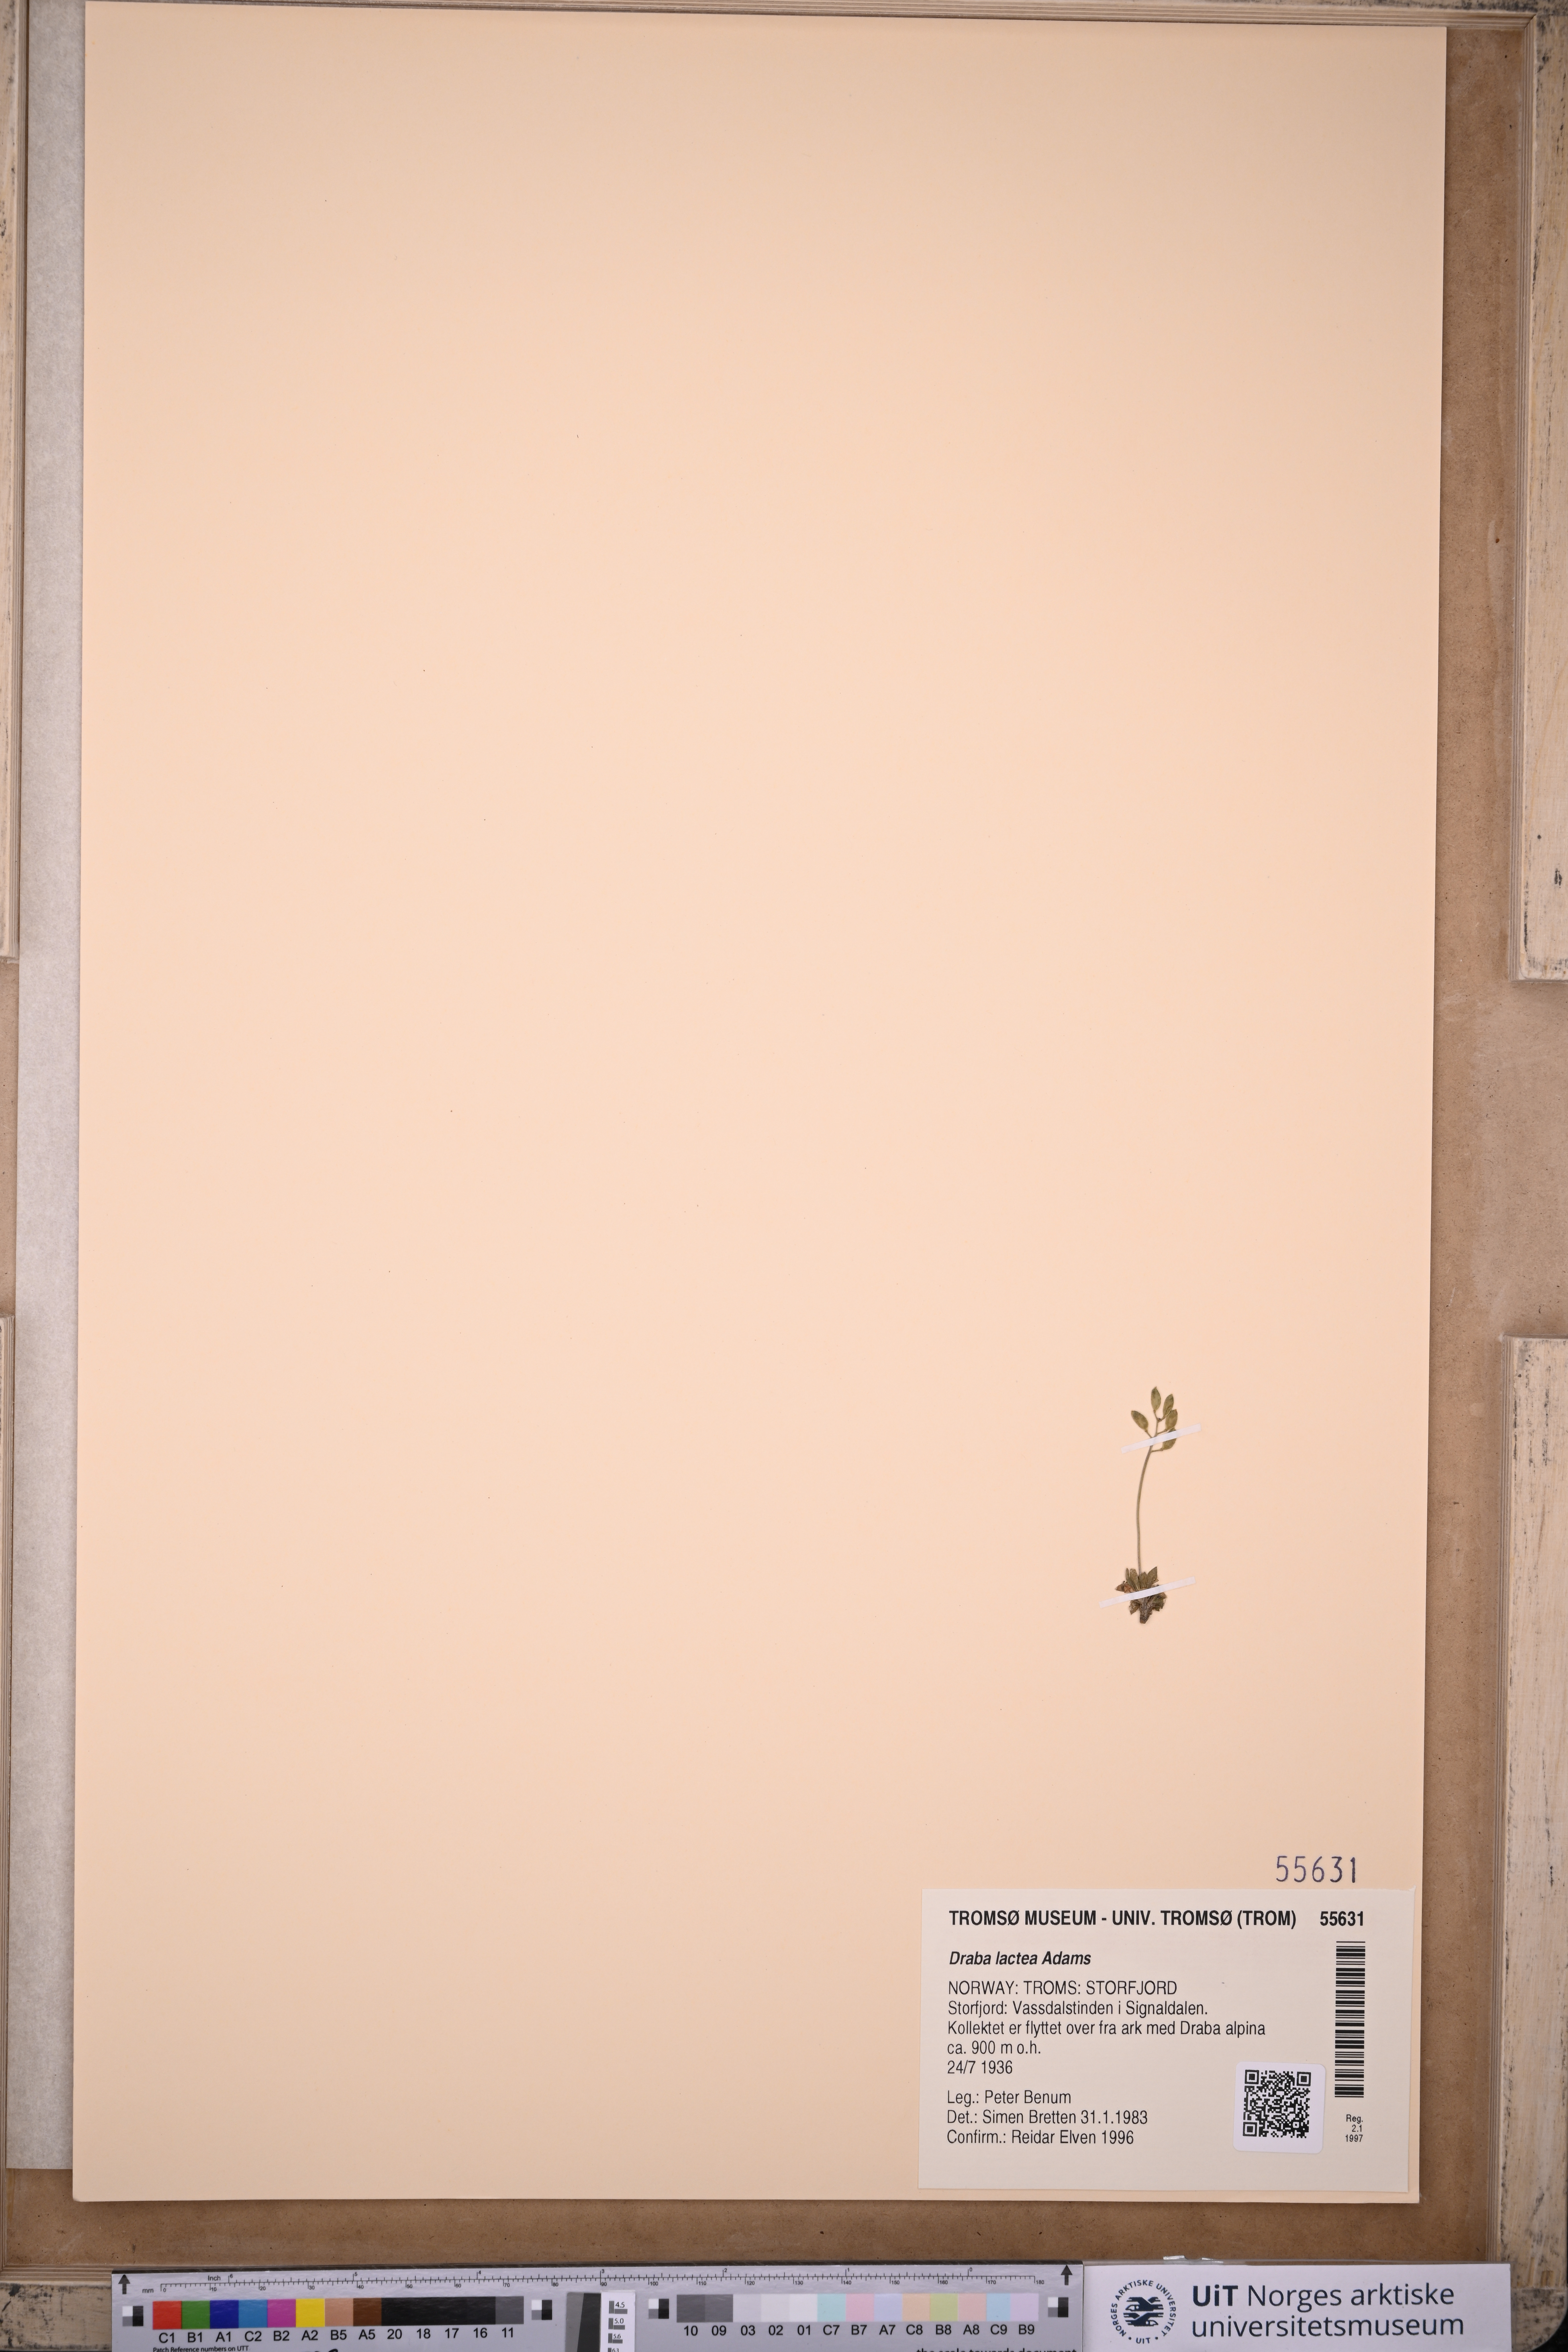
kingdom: Plantae
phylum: Tracheophyta
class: Magnoliopsida
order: Brassicales
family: Brassicaceae
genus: Draba
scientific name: Draba lactea
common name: Milky draba
